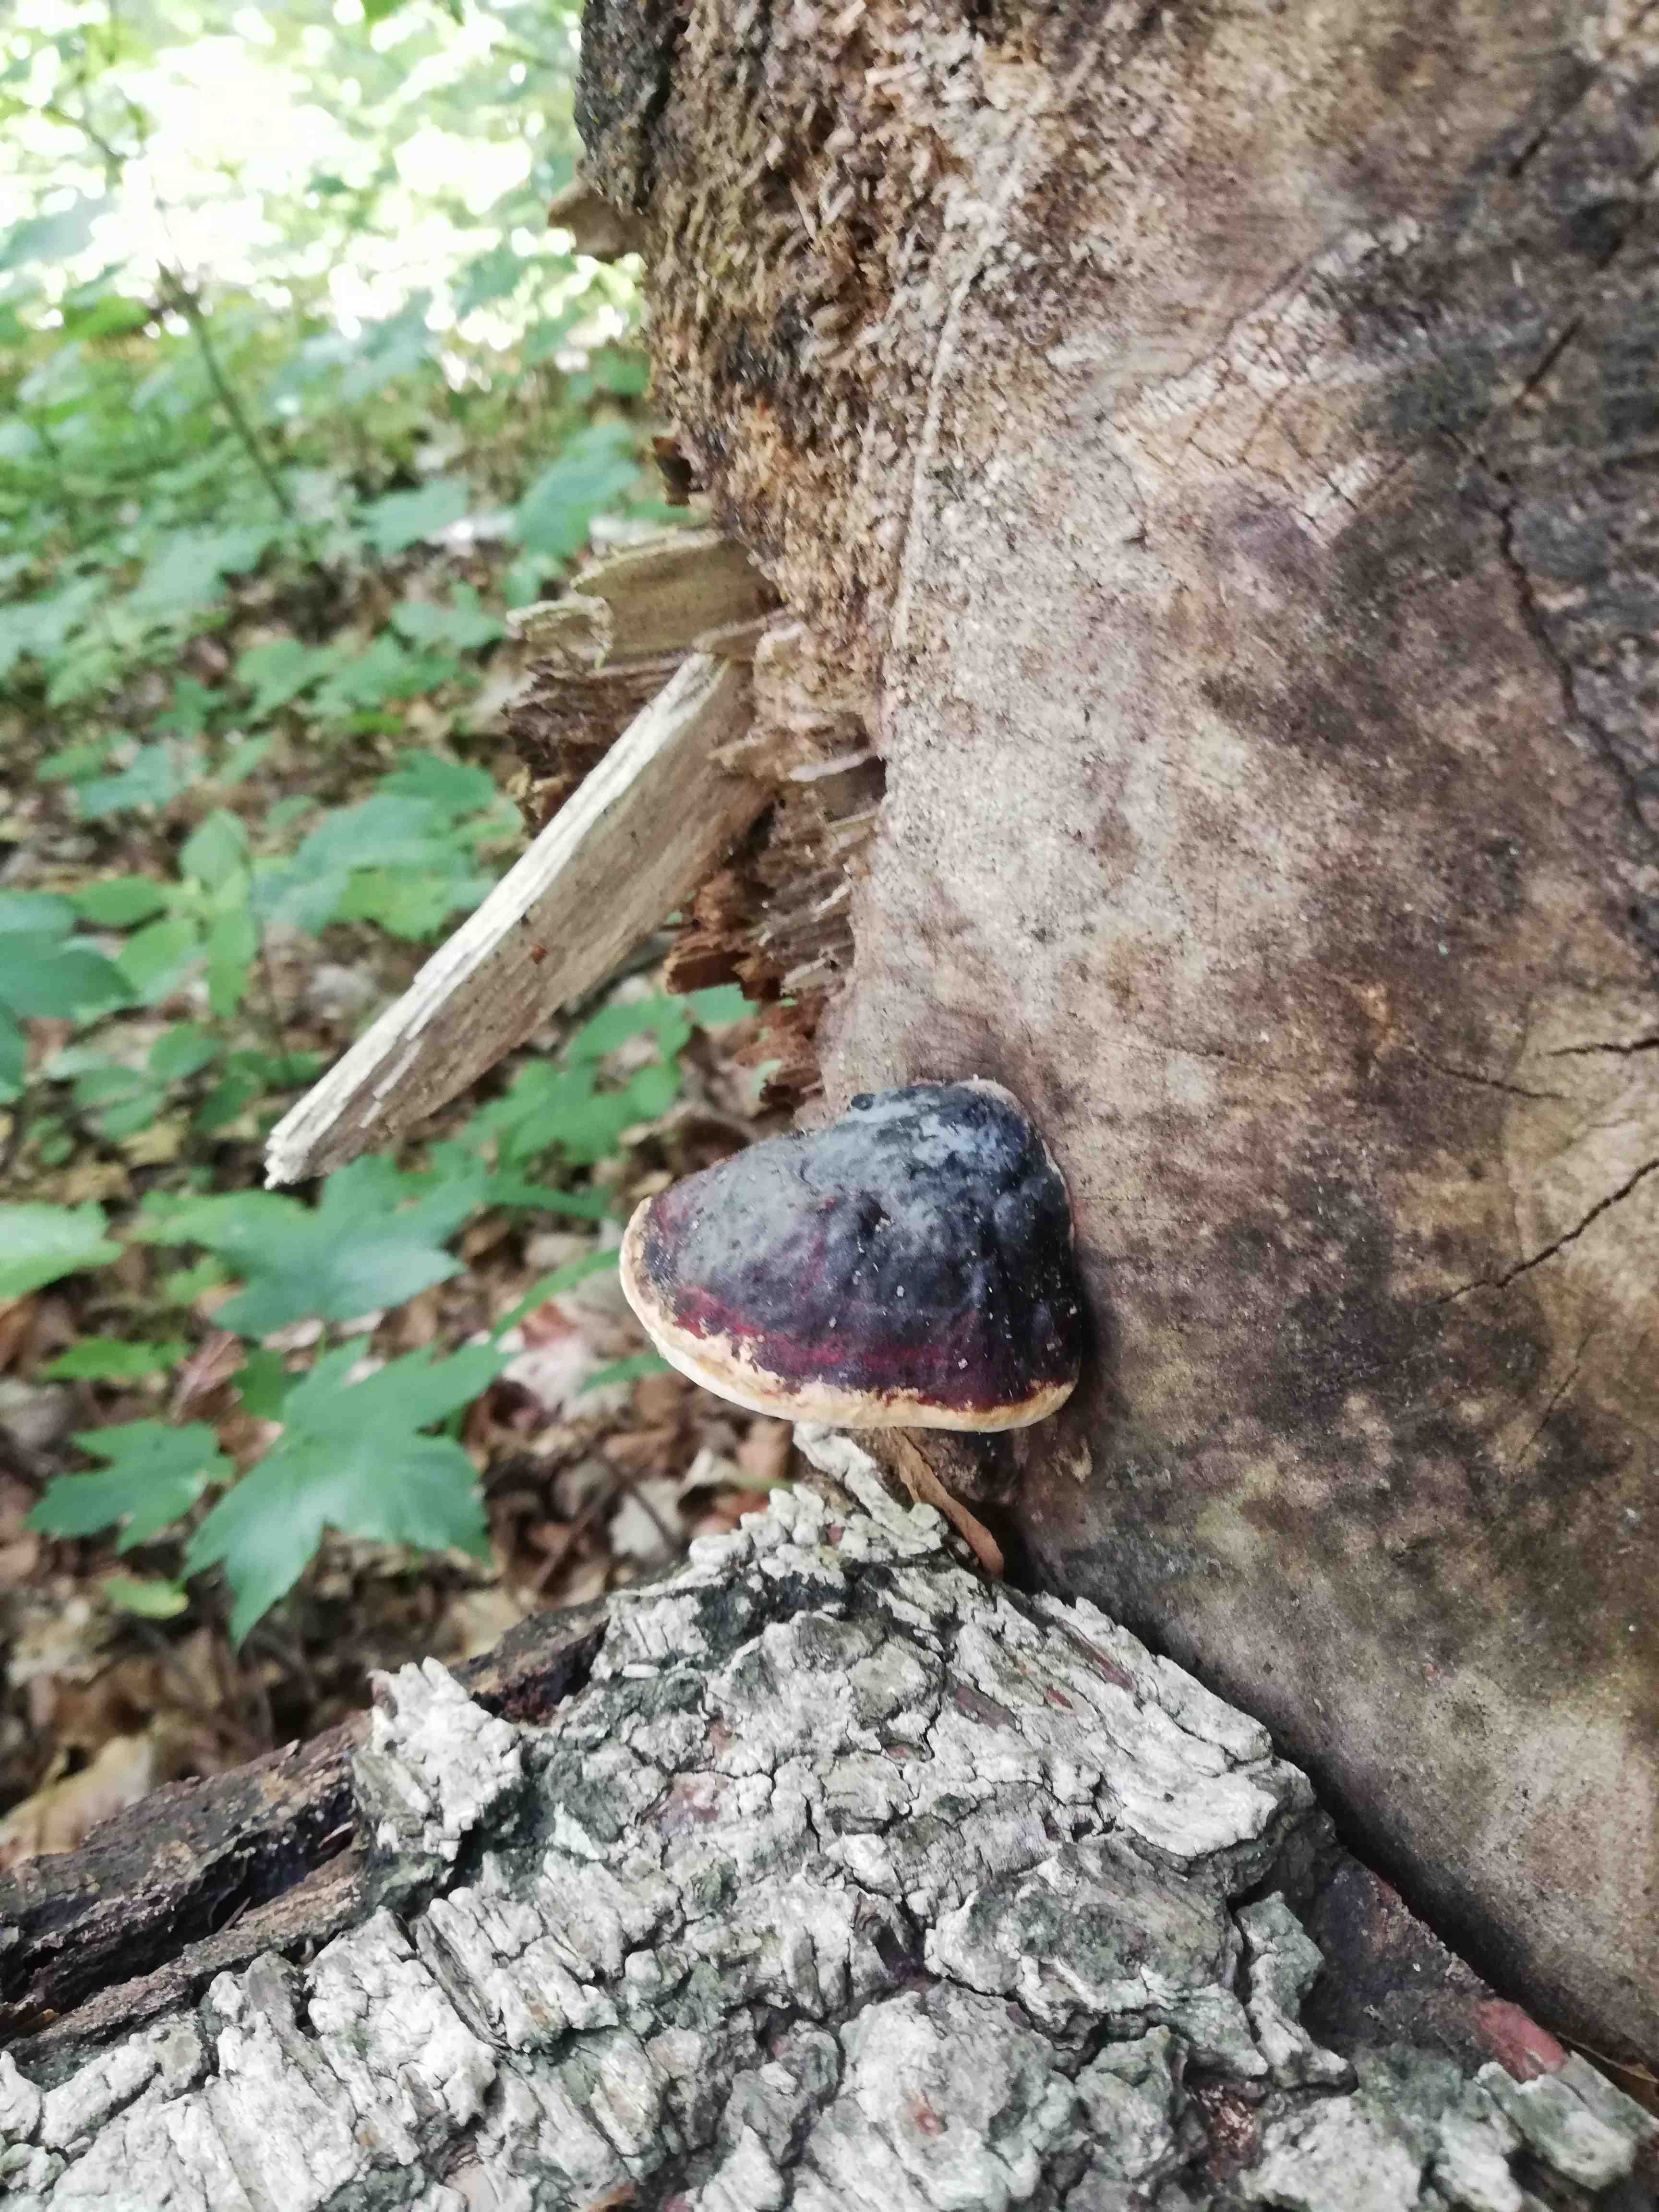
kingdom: Fungi
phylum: Basidiomycota
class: Agaricomycetes
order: Polyporales
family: Fomitopsidaceae
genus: Fomitopsis
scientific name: Fomitopsis pinicola
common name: randbæltet hovporesvamp
